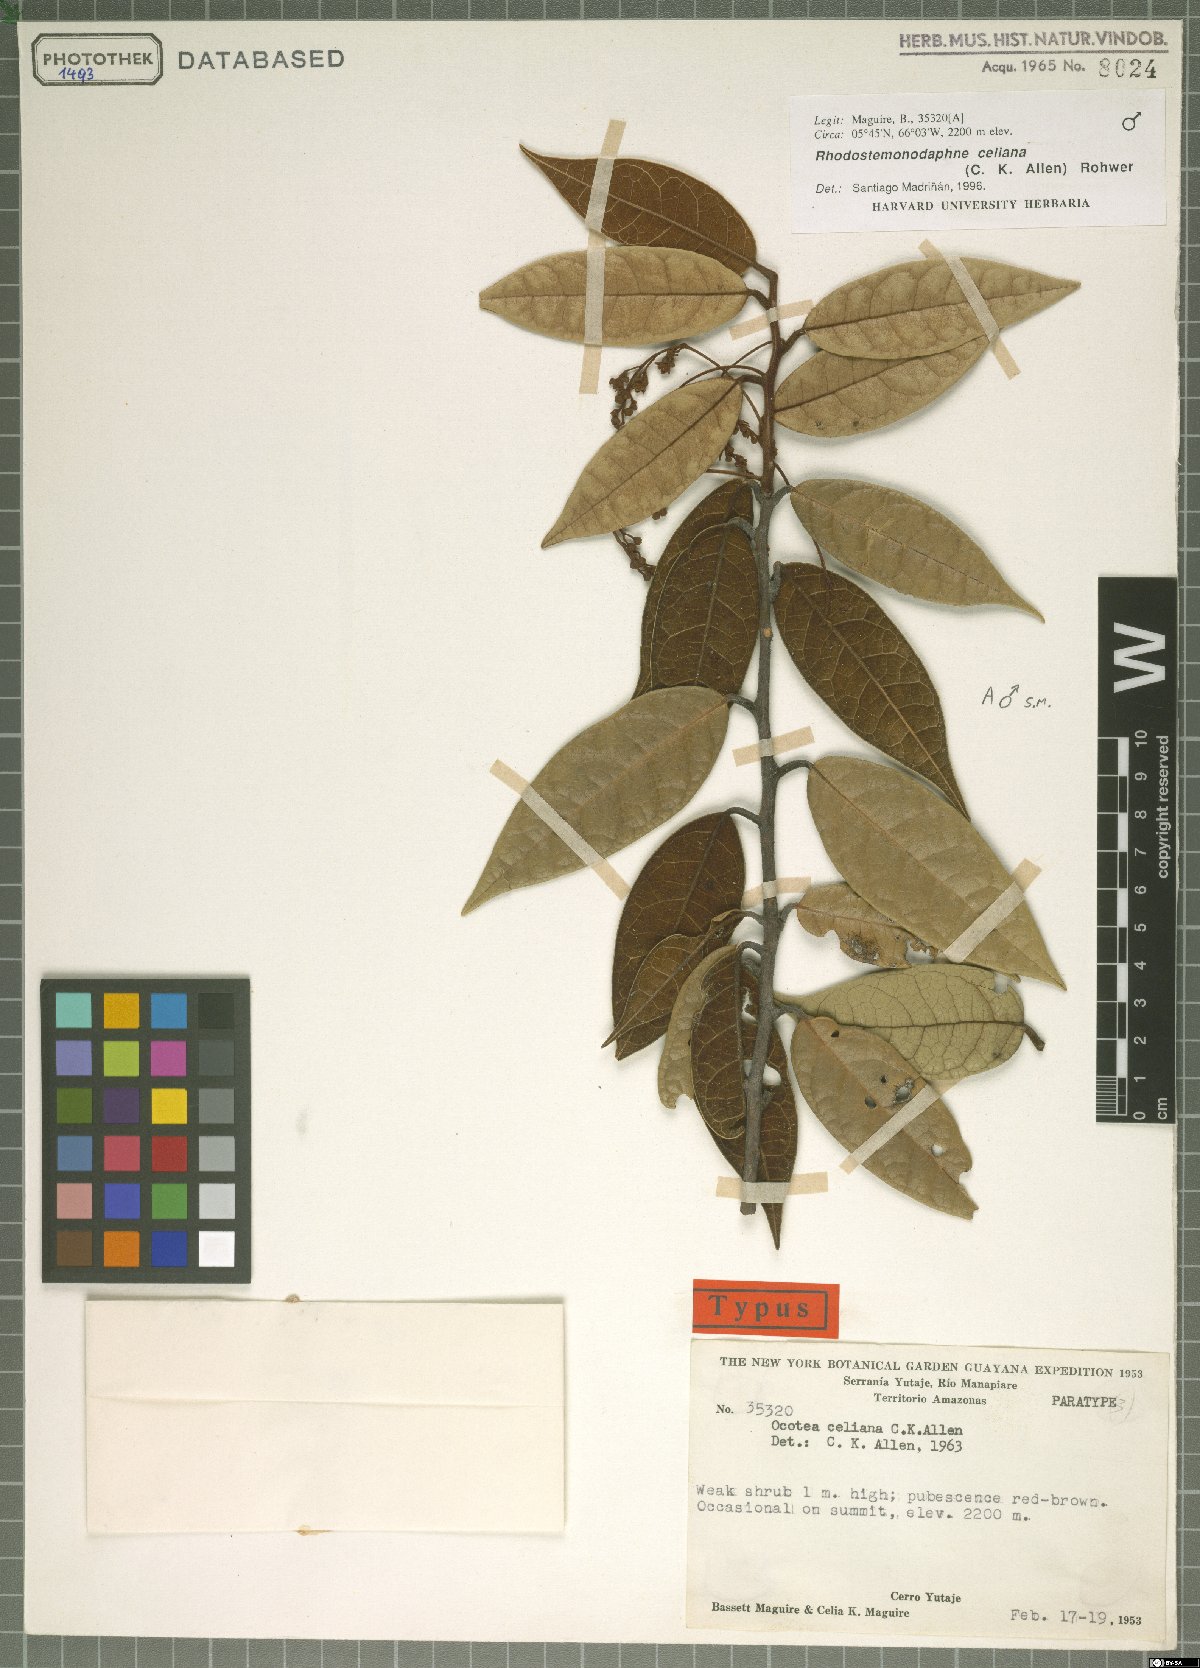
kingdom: Plantae
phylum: Tracheophyta
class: Magnoliopsida
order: Laurales
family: Lauraceae
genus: Rhodostemonodaphne
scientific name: Rhodostemonodaphne celiana
